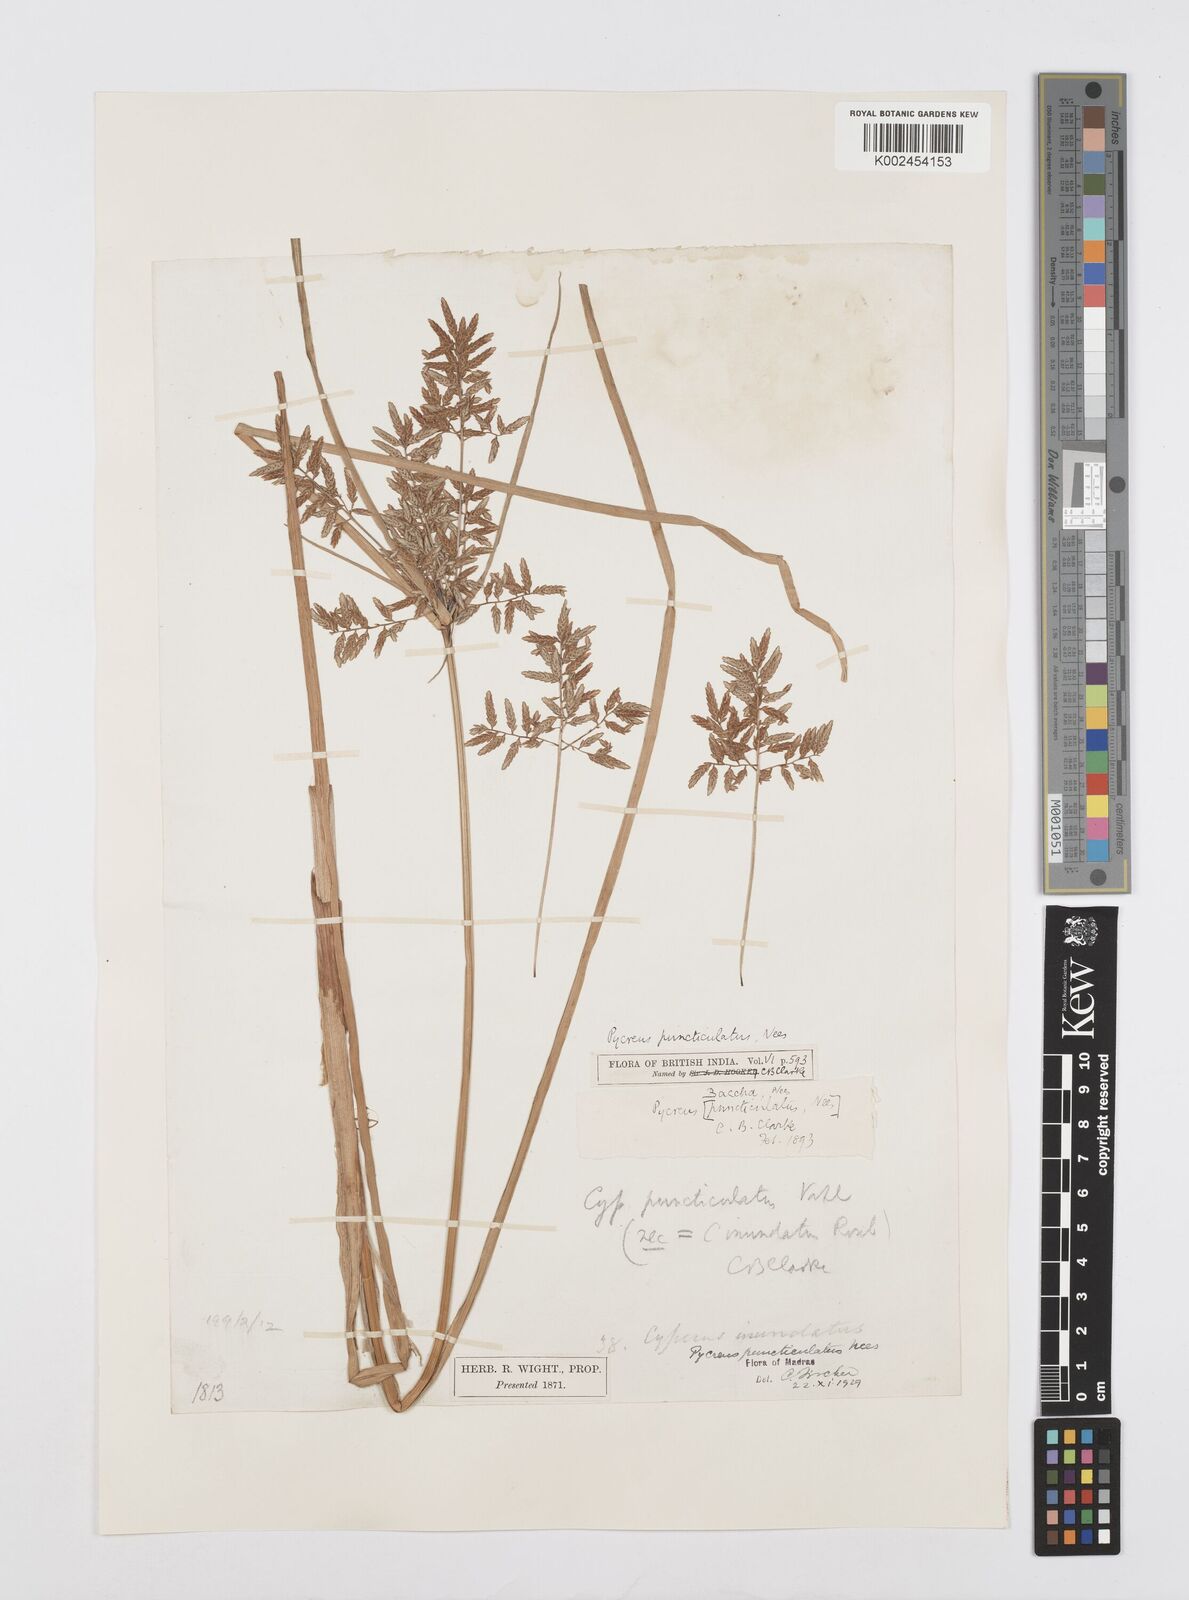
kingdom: Plantae
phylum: Tracheophyta
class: Liliopsida
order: Poales
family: Cyperaceae
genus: Cyperus
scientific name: Cyperus serotinus
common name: Tidalmarsh flatsedge
